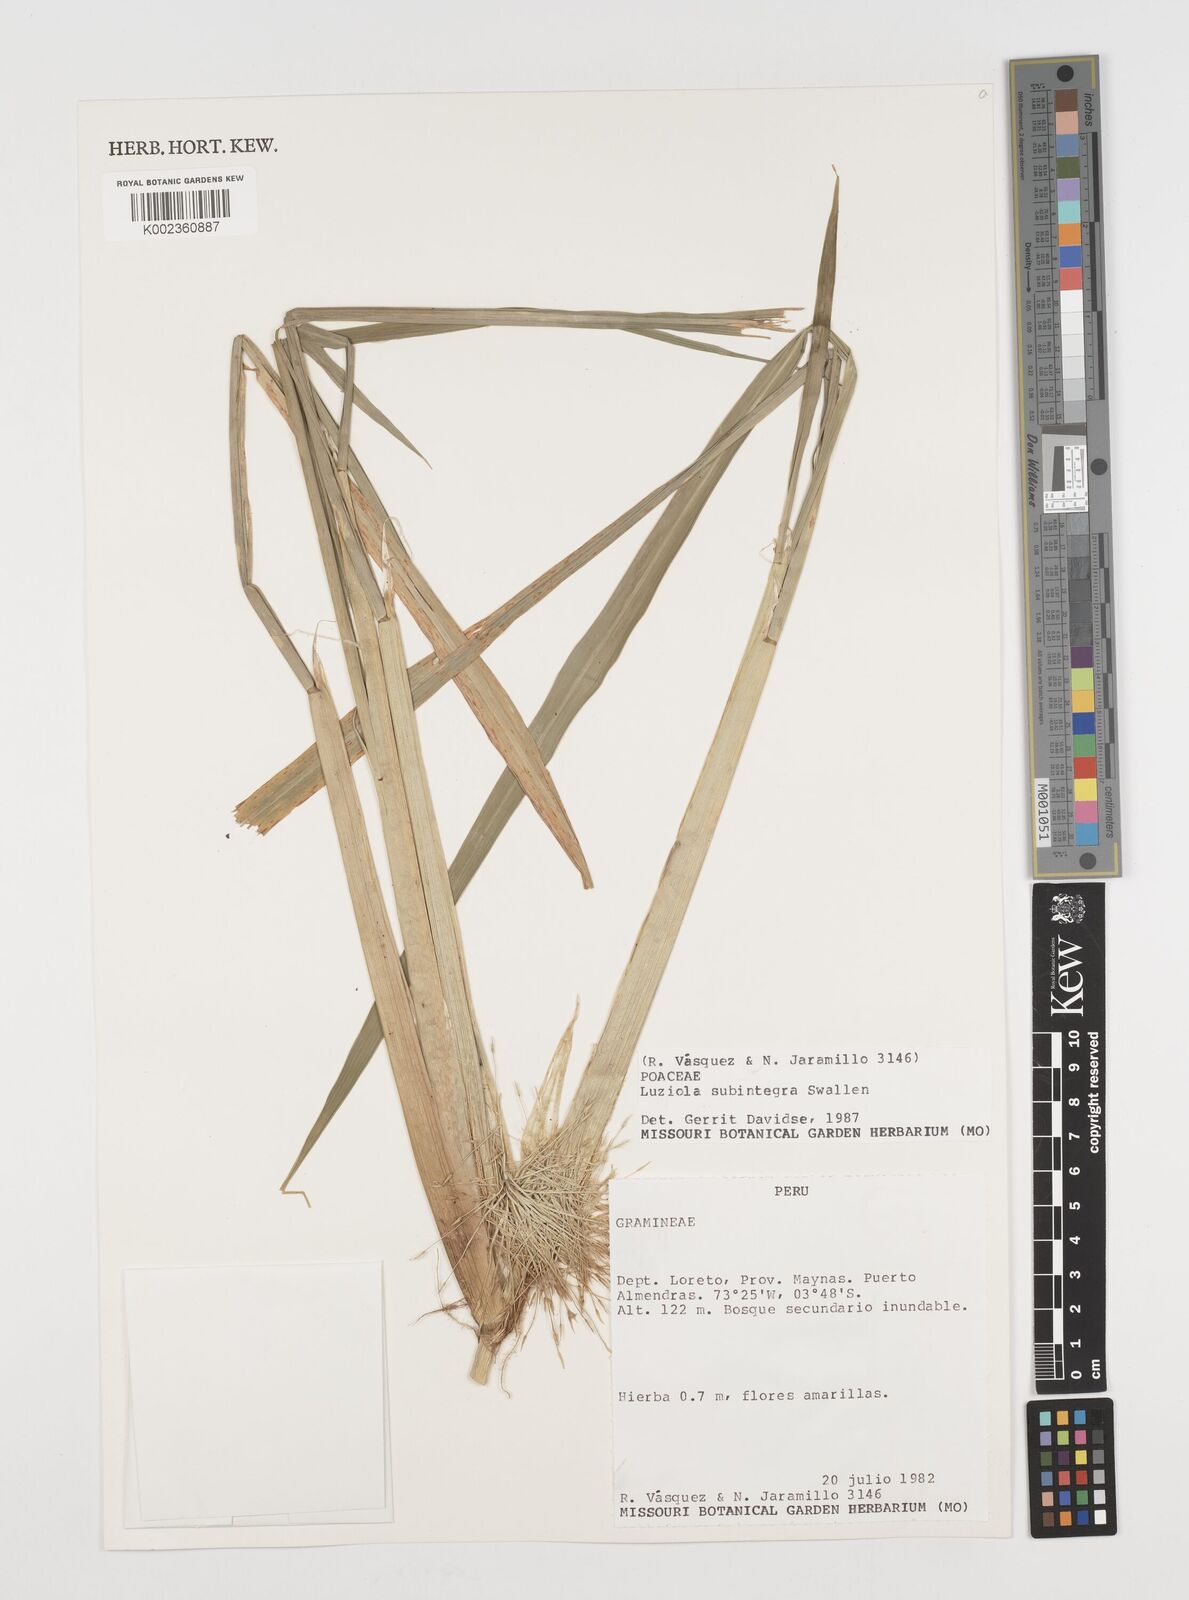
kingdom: Plantae
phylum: Tracheophyta
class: Liliopsida
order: Poales
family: Poaceae
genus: Luziola
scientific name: Luziola subintegra
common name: Large watergrass
